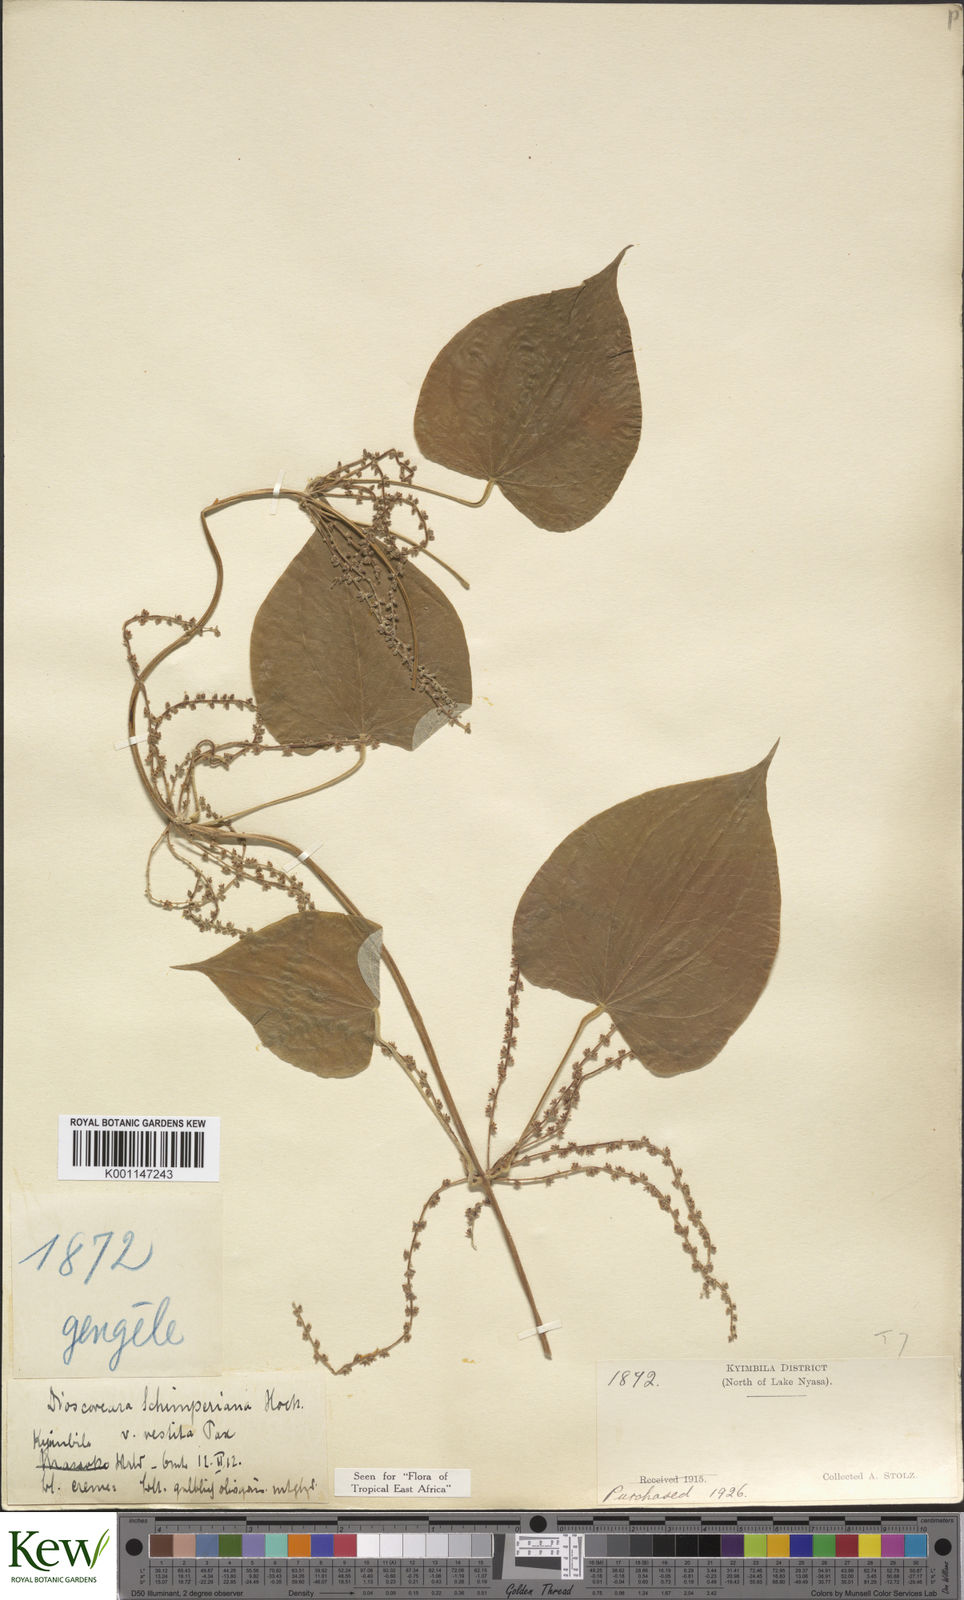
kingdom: Plantae
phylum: Tracheophyta
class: Liliopsida
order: Dioscoreales
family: Dioscoreaceae
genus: Dioscorea
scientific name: Dioscorea schimperiana
